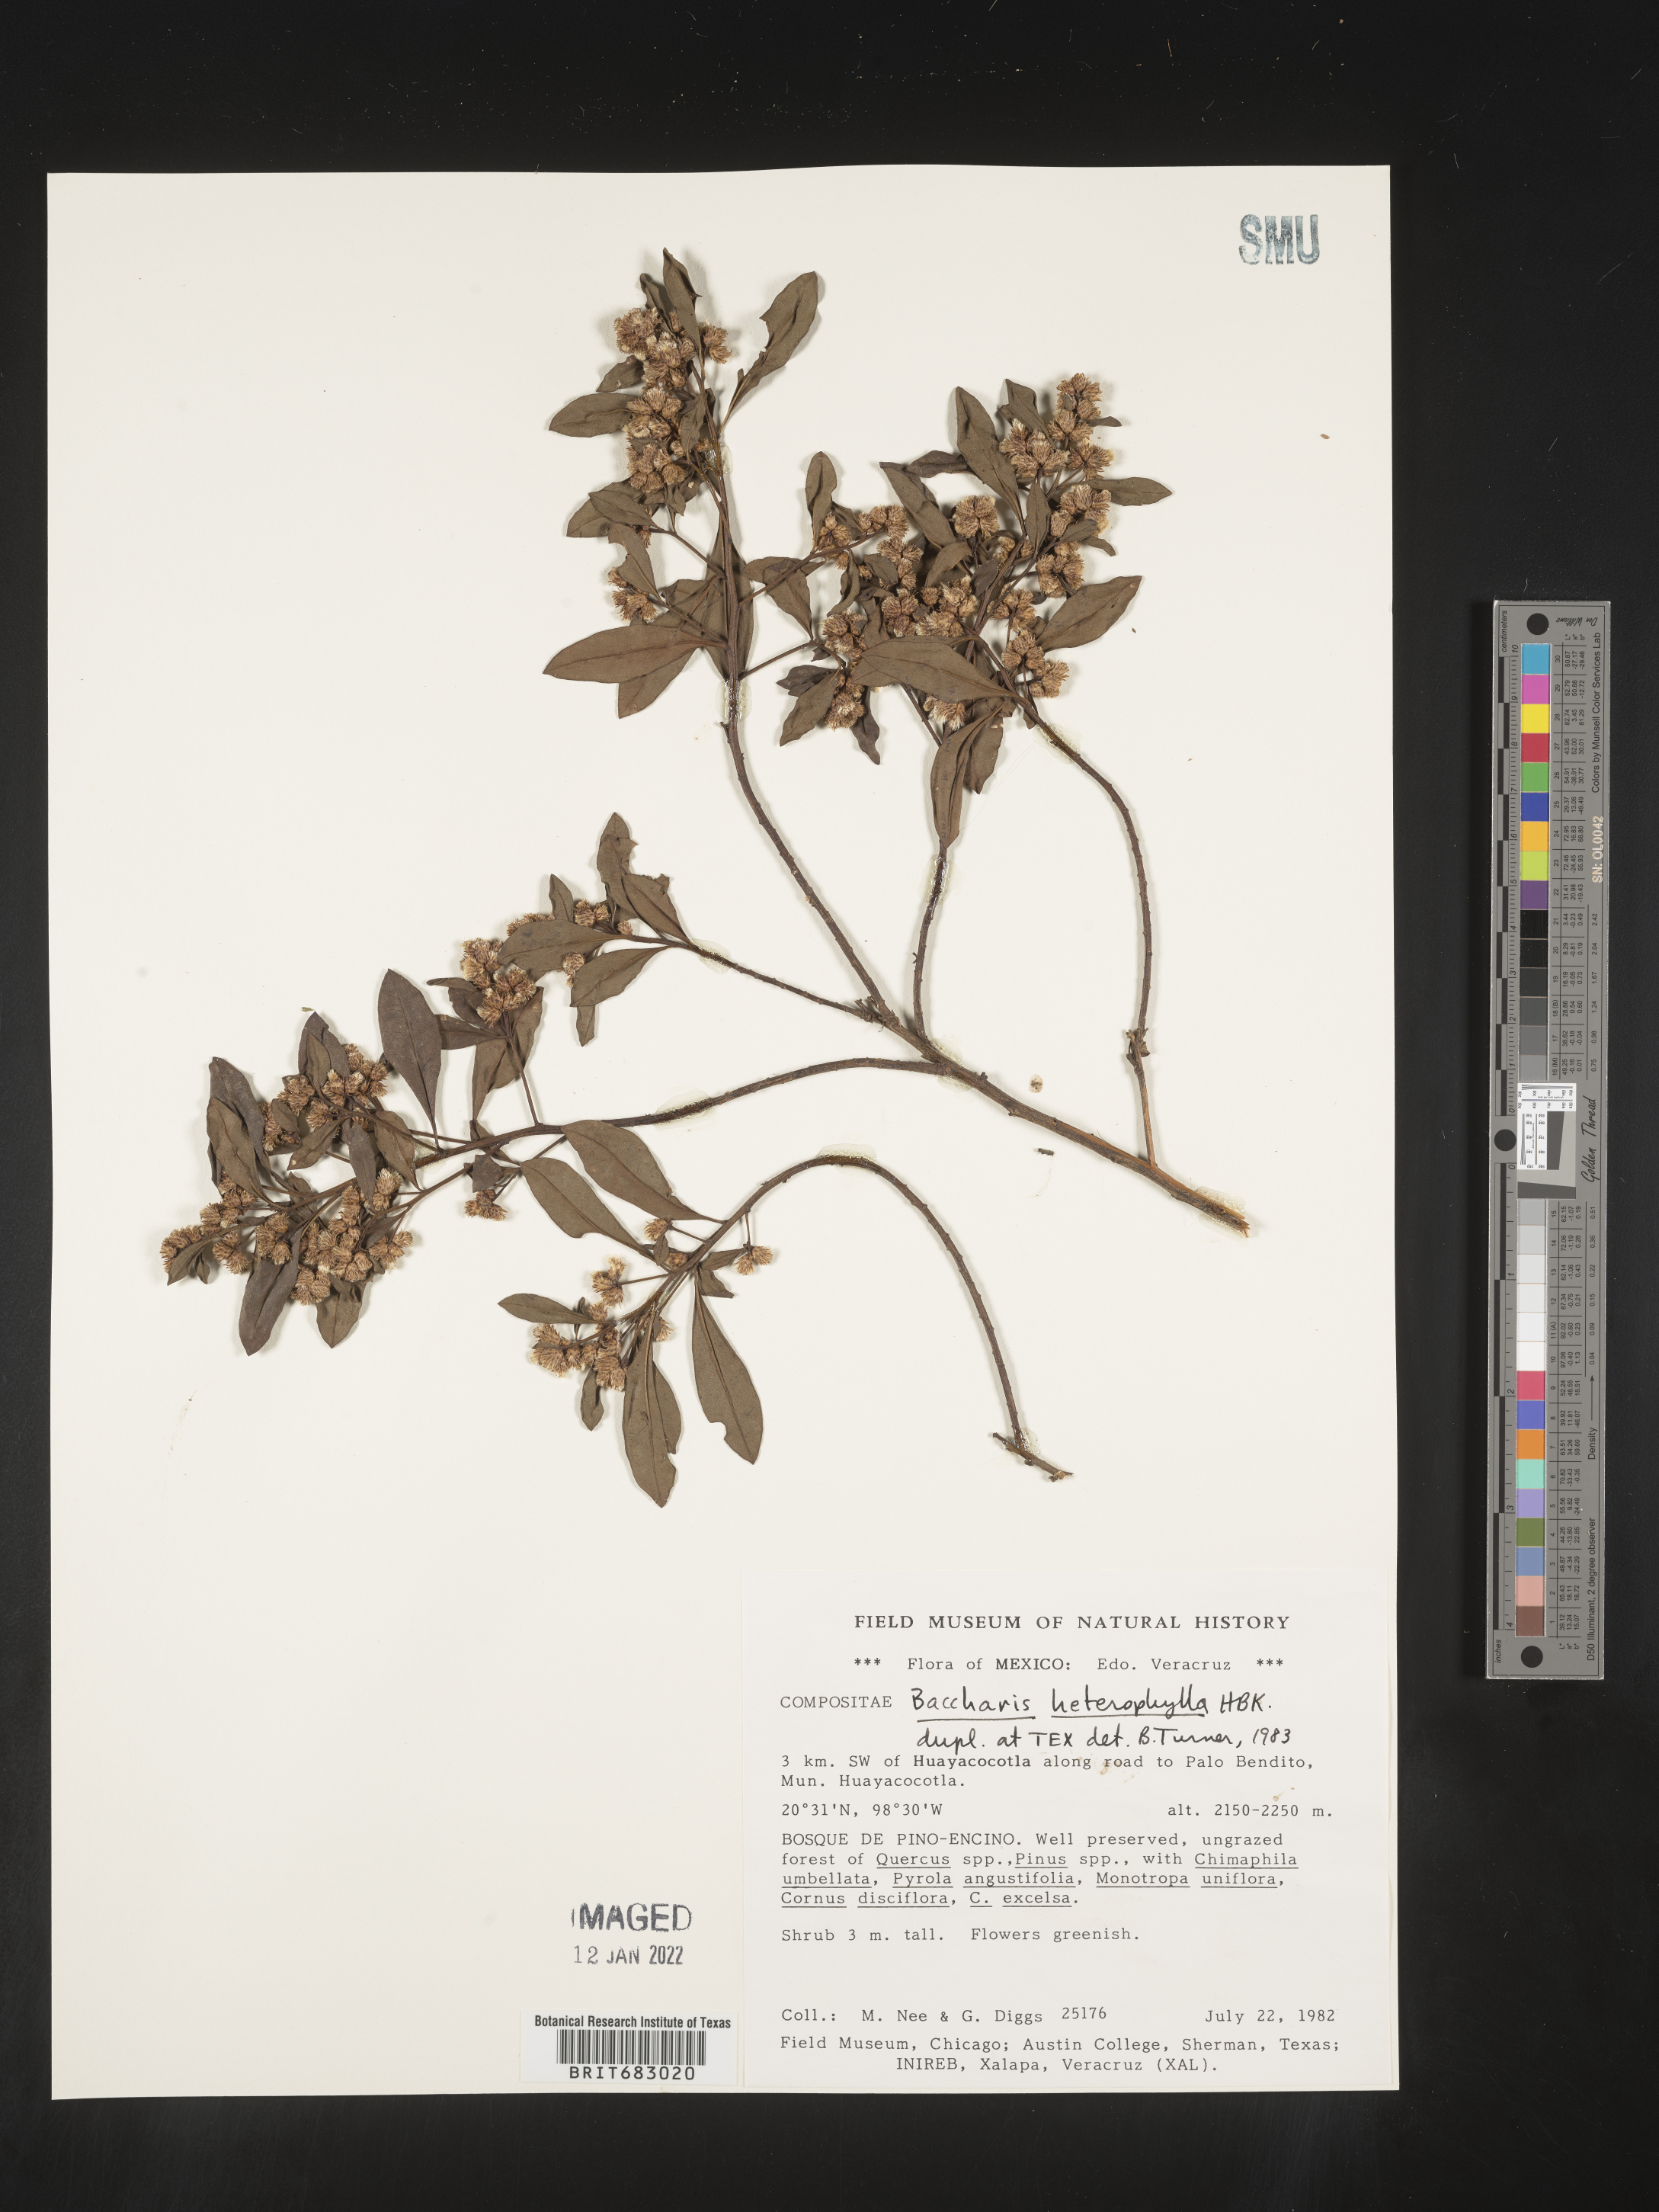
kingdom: Plantae
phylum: Tracheophyta
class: Magnoliopsida
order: Asterales
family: Asteraceae
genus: Baccharis
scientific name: Baccharis microdonta
